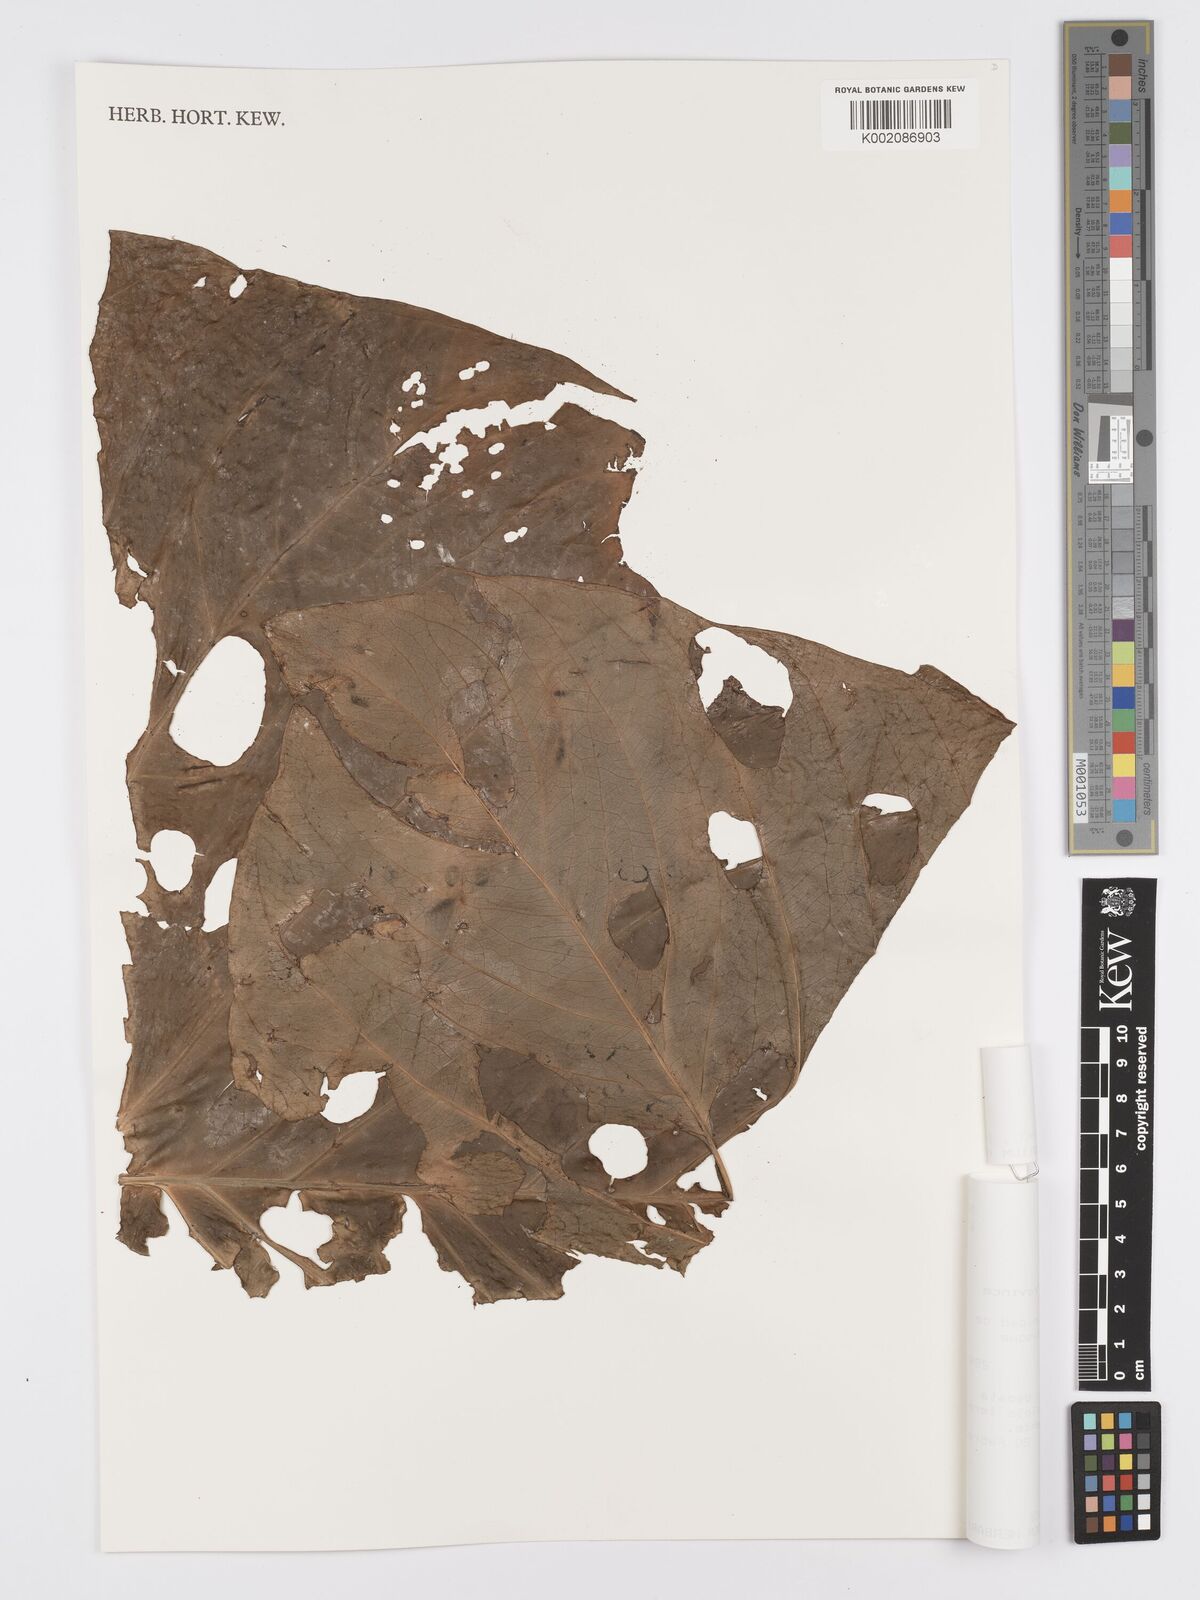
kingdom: Plantae
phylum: Tracheophyta
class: Liliopsida
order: Alismatales
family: Araceae
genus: Anthurium
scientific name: Anthurium regale
